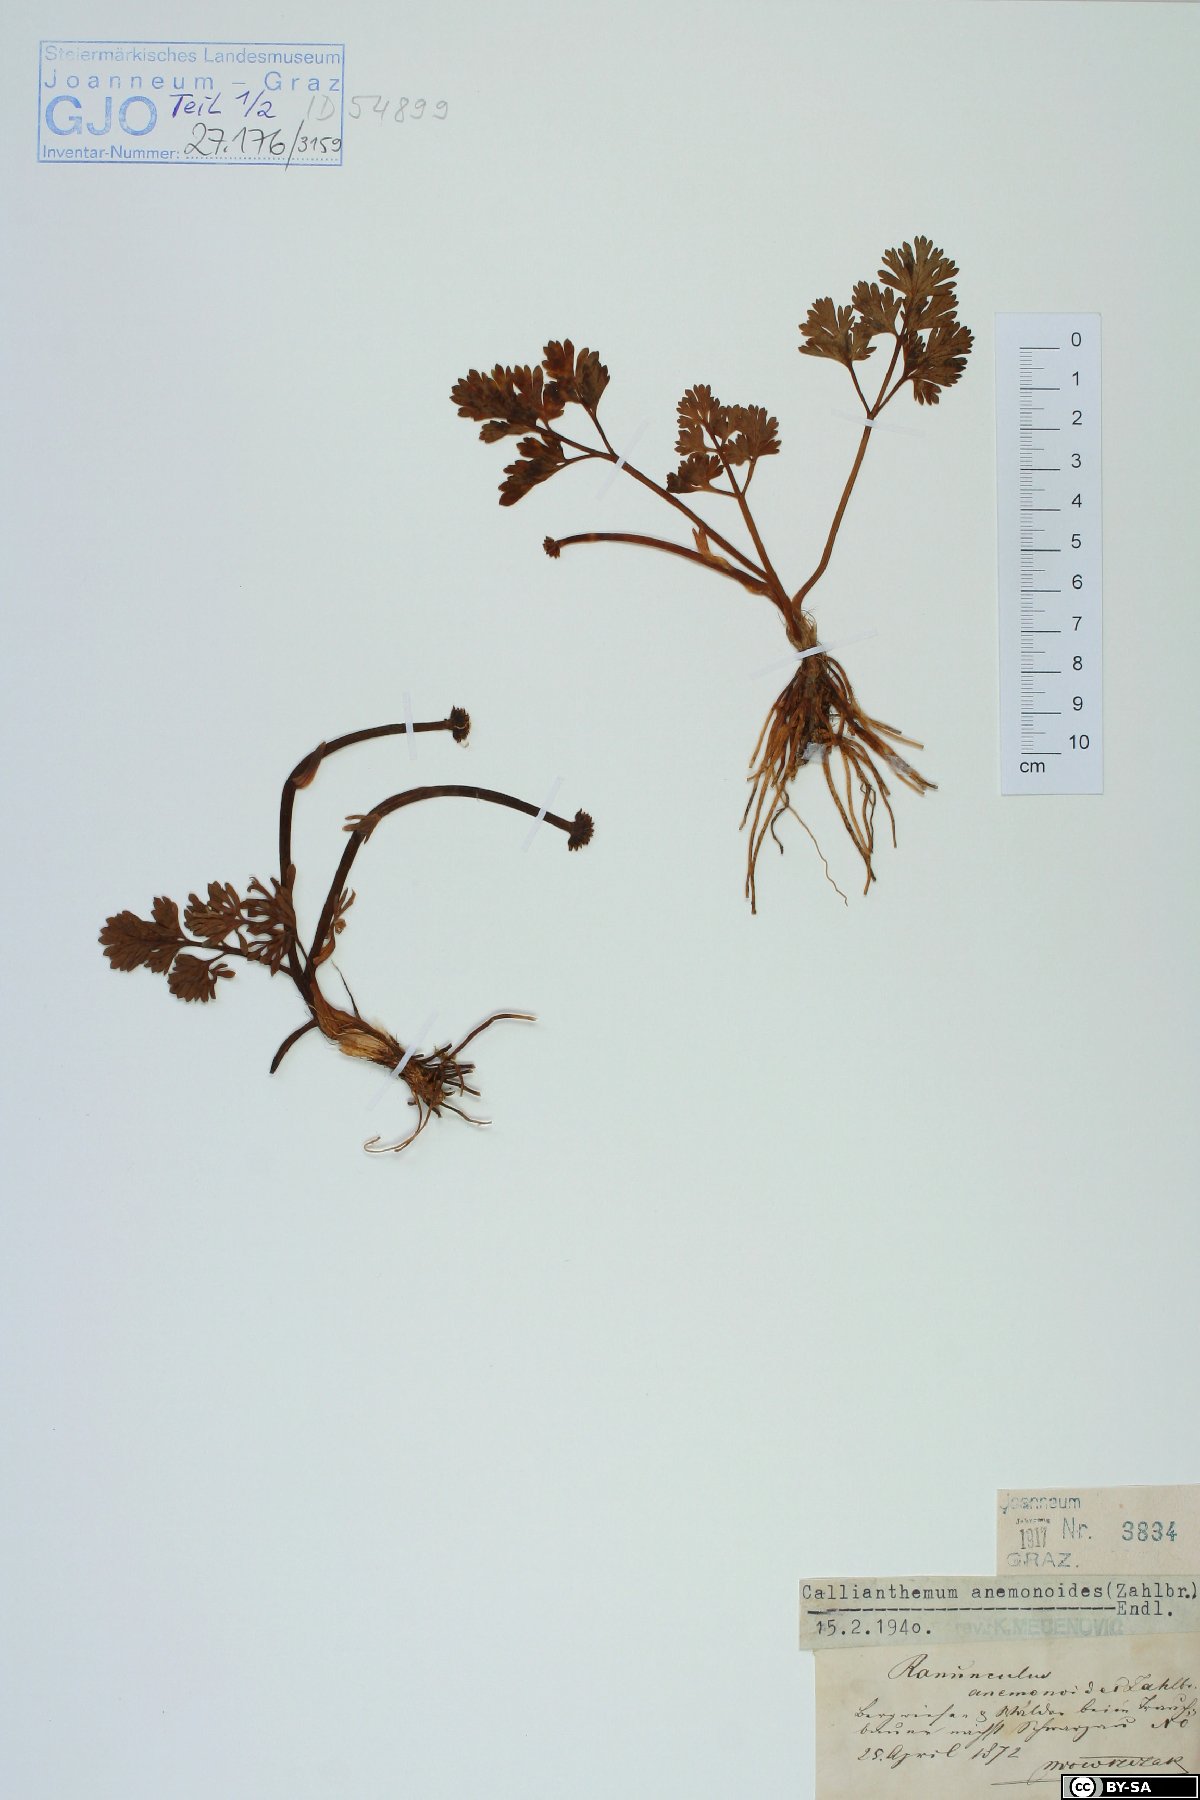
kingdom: Plantae
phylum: Tracheophyta
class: Magnoliopsida
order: Ranunculales
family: Ranunculaceae
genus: Callianthemum
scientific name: Callianthemum anemonoides
